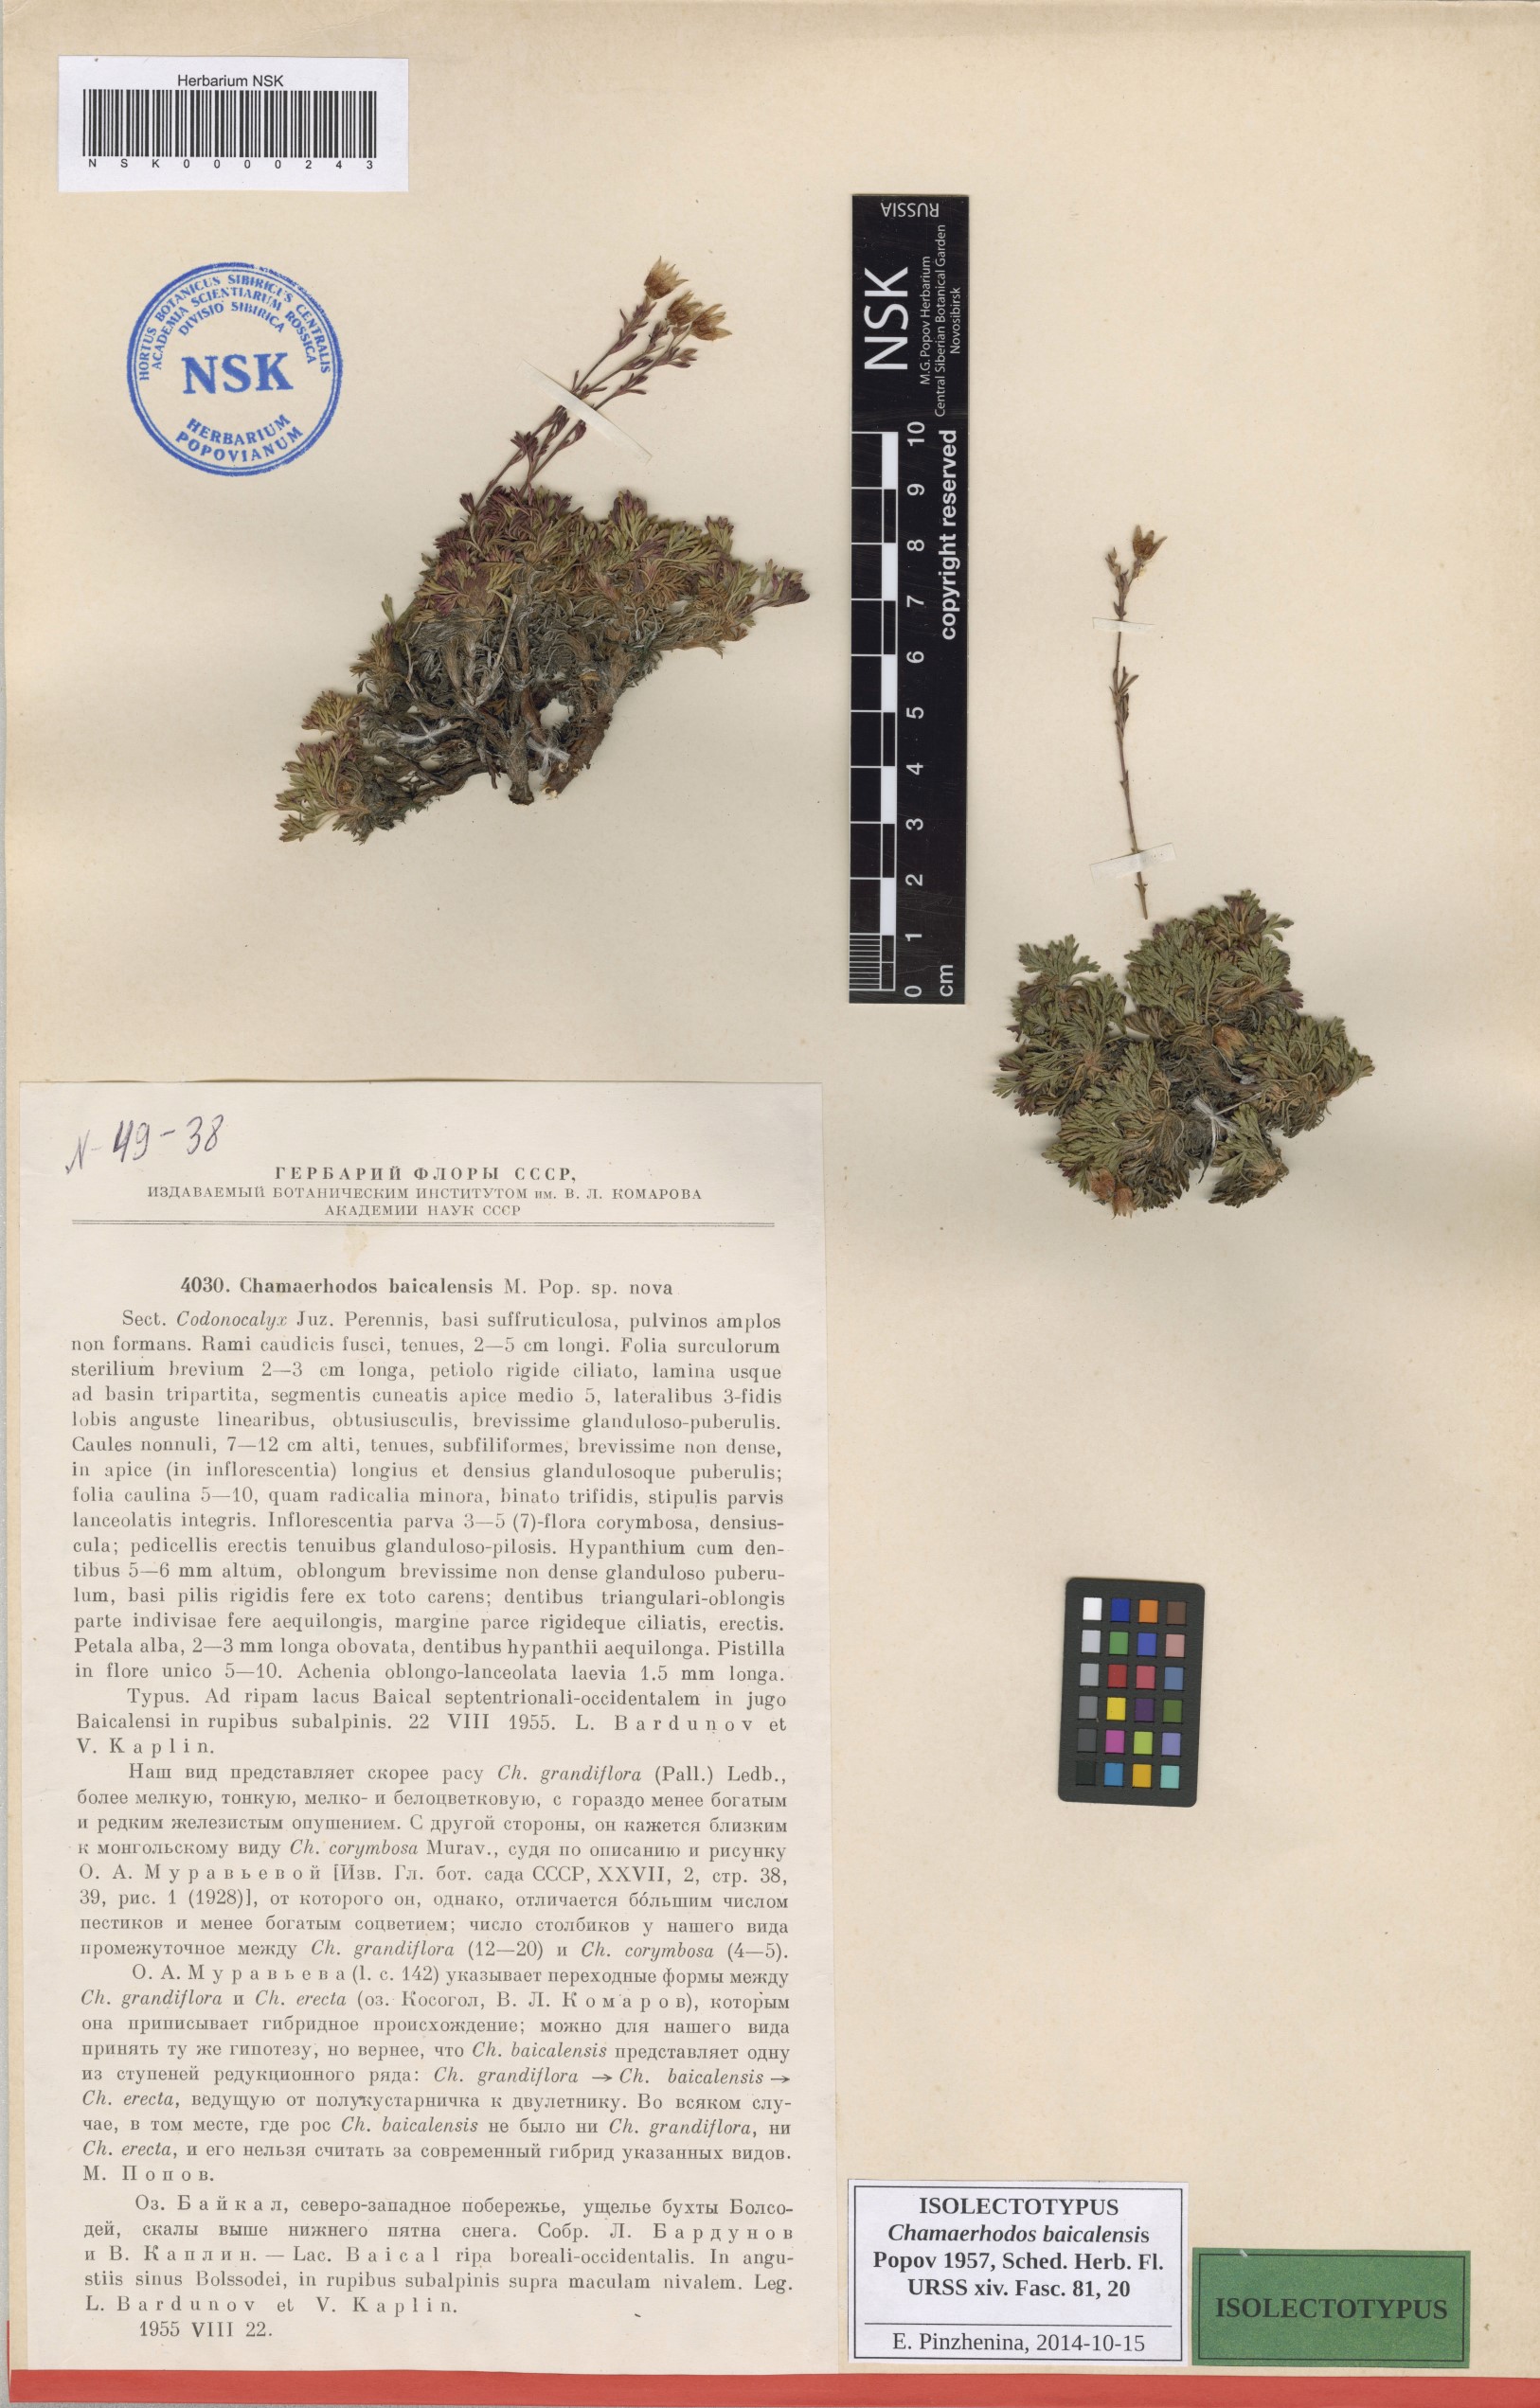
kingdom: Plantae
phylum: Tracheophyta
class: Magnoliopsida
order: Rosales
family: Rosaceae
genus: Chamaerhodos
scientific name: Chamaerhodos grandiflora
